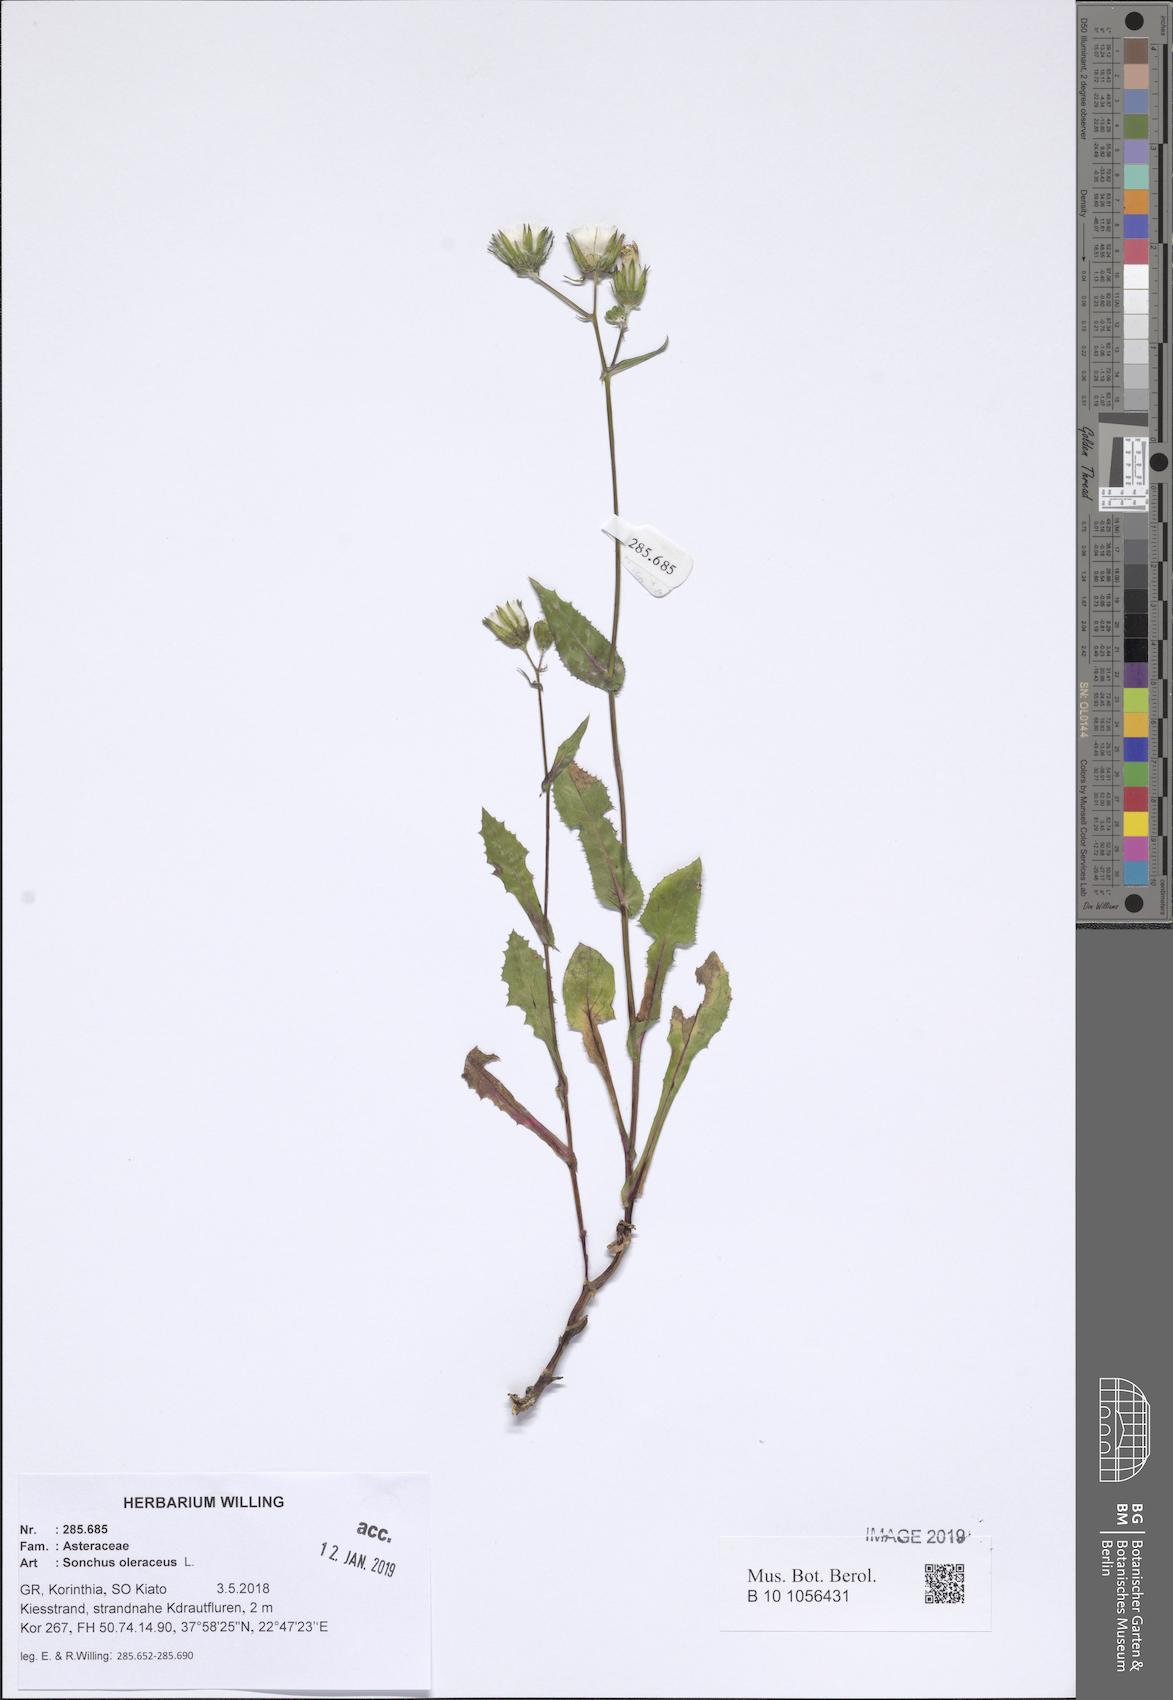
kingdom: Plantae
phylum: Tracheophyta
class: Magnoliopsida
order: Asterales
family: Asteraceae
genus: Sonchus
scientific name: Sonchus oleraceus
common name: Common sowthistle
